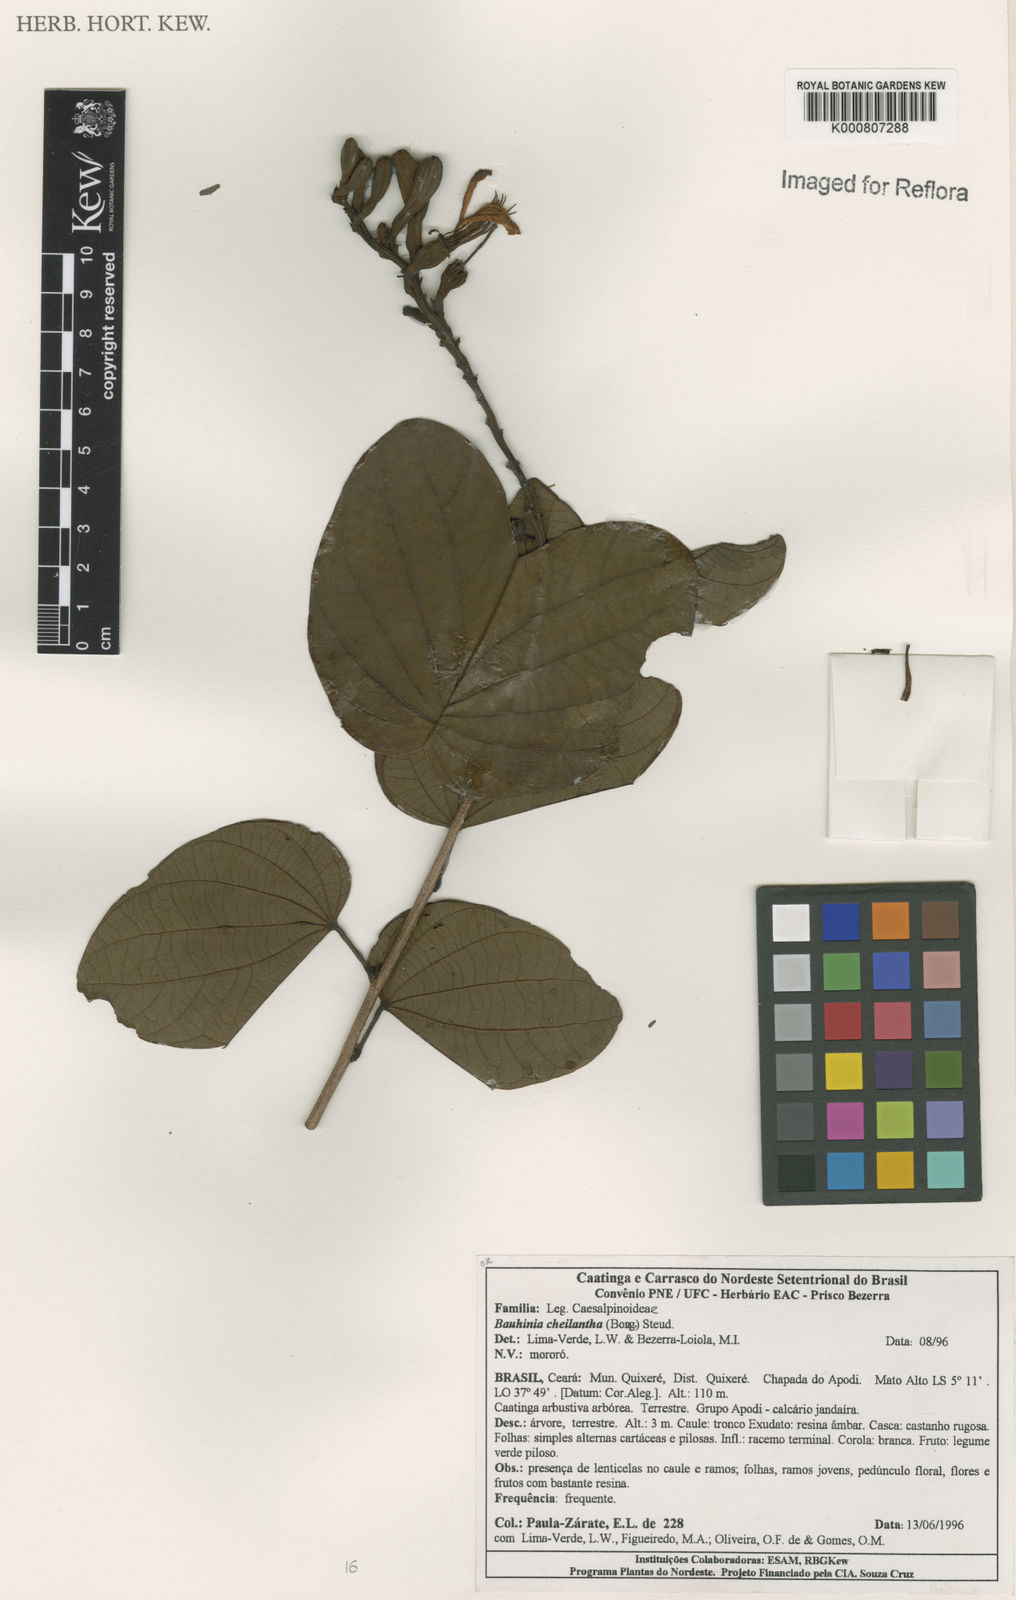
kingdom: Plantae
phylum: Tracheophyta
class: Magnoliopsida
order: Fabales
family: Fabaceae
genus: Bauhinia
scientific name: Bauhinia cheilantha
